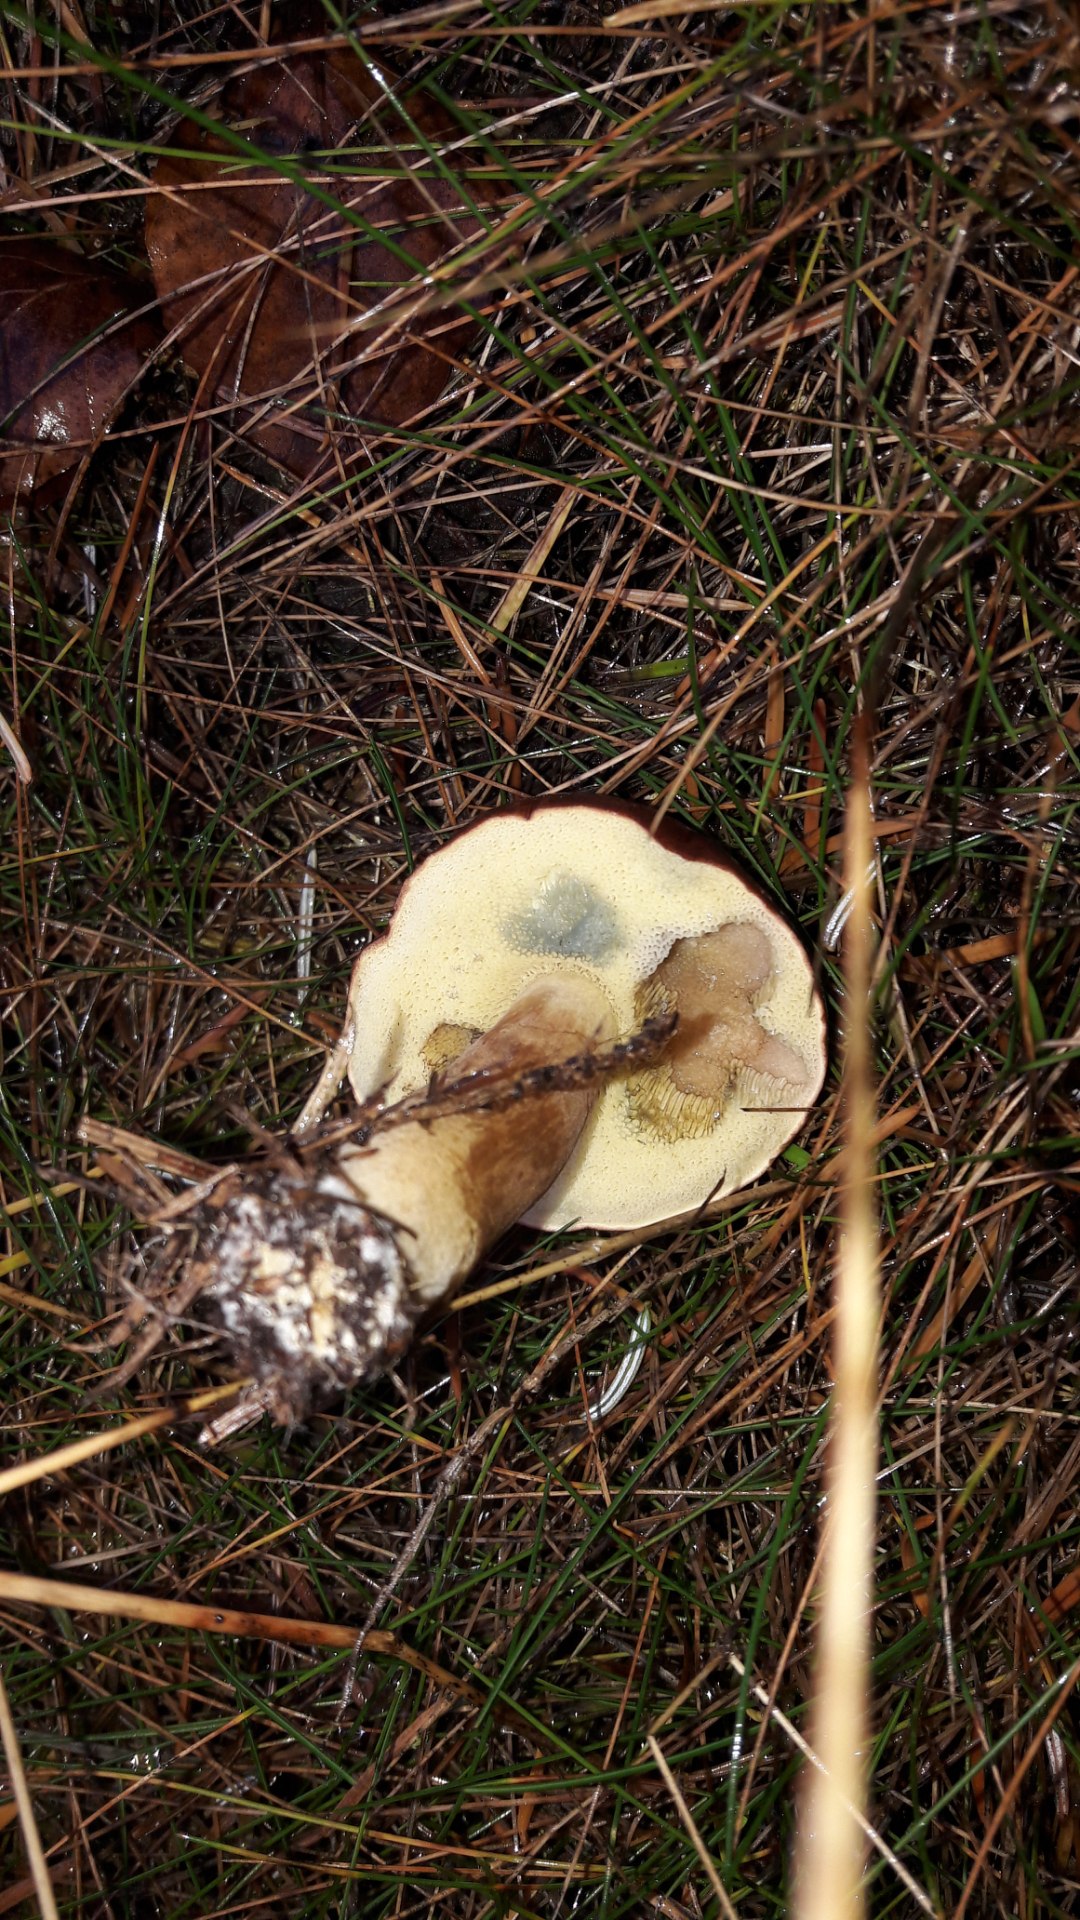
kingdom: Fungi
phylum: Basidiomycota
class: Agaricomycetes
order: Boletales
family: Boletaceae
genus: Imleria
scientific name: Imleria badia
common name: brunstokket rørhat
